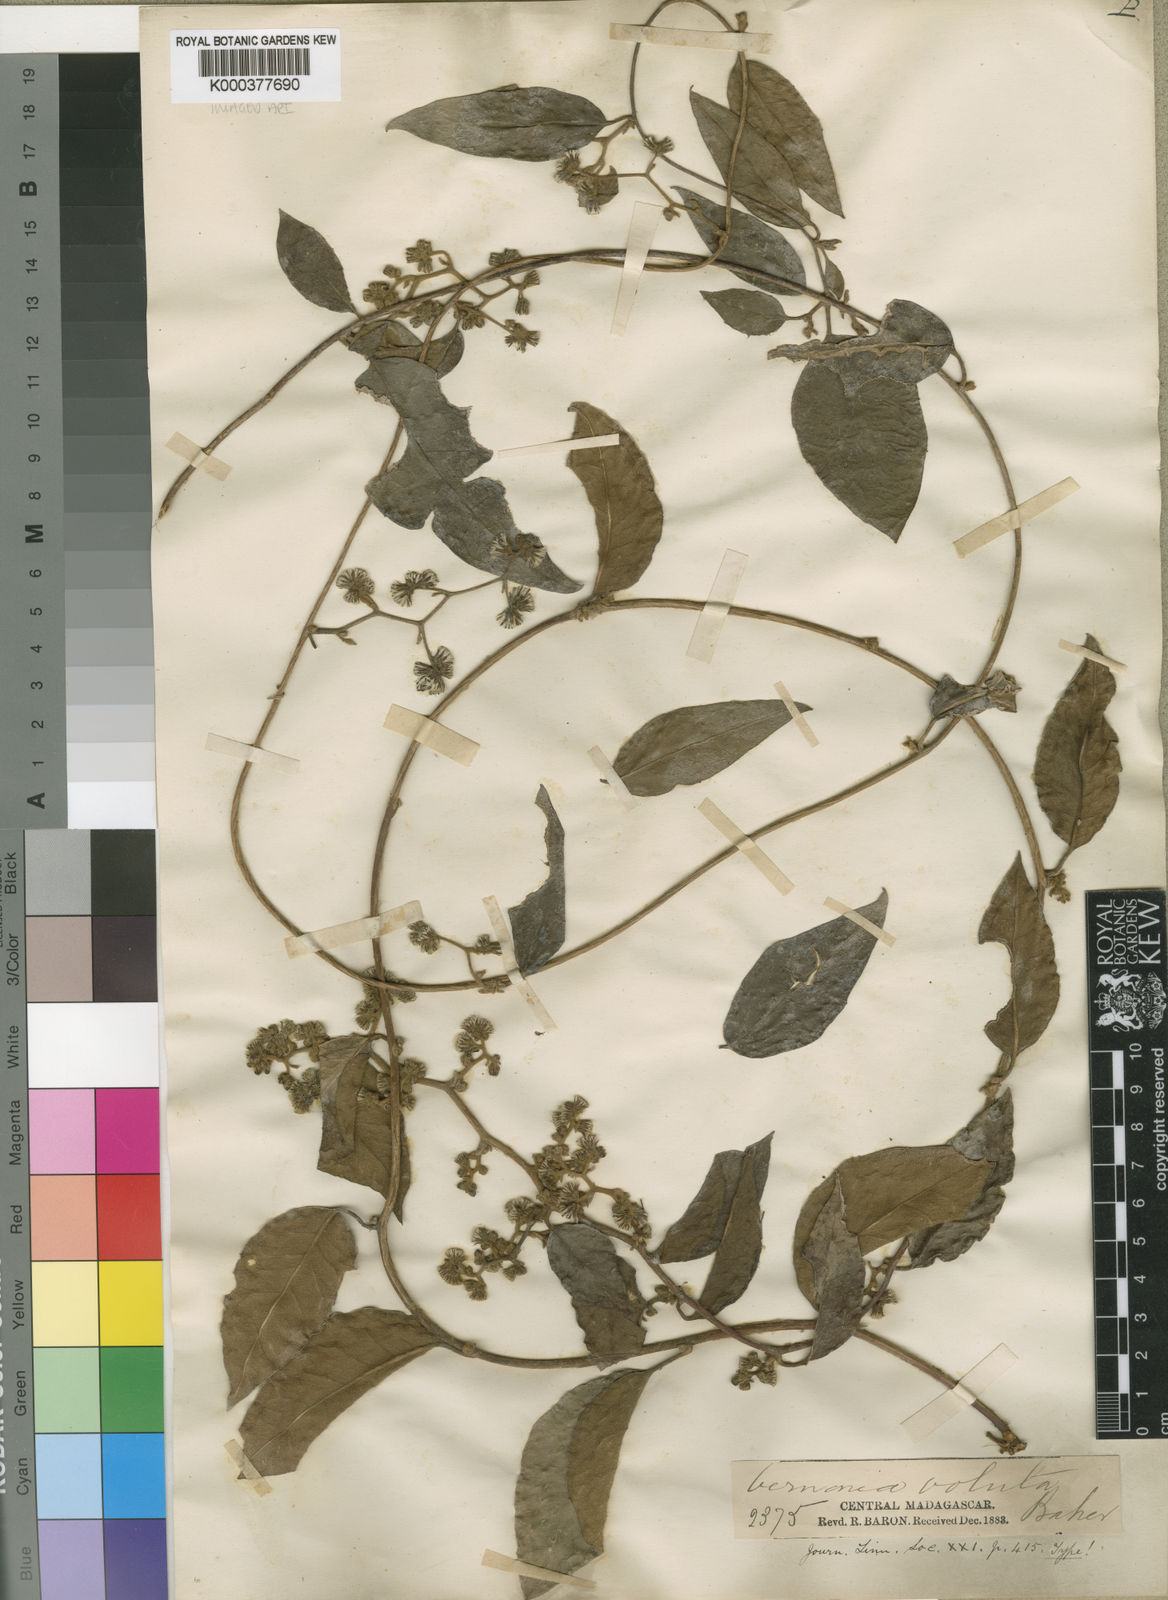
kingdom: Plantae
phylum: Tracheophyta
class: Magnoliopsida
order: Asterales
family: Asteraceae
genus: Humbertacalia
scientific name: Humbertacalia voluta
